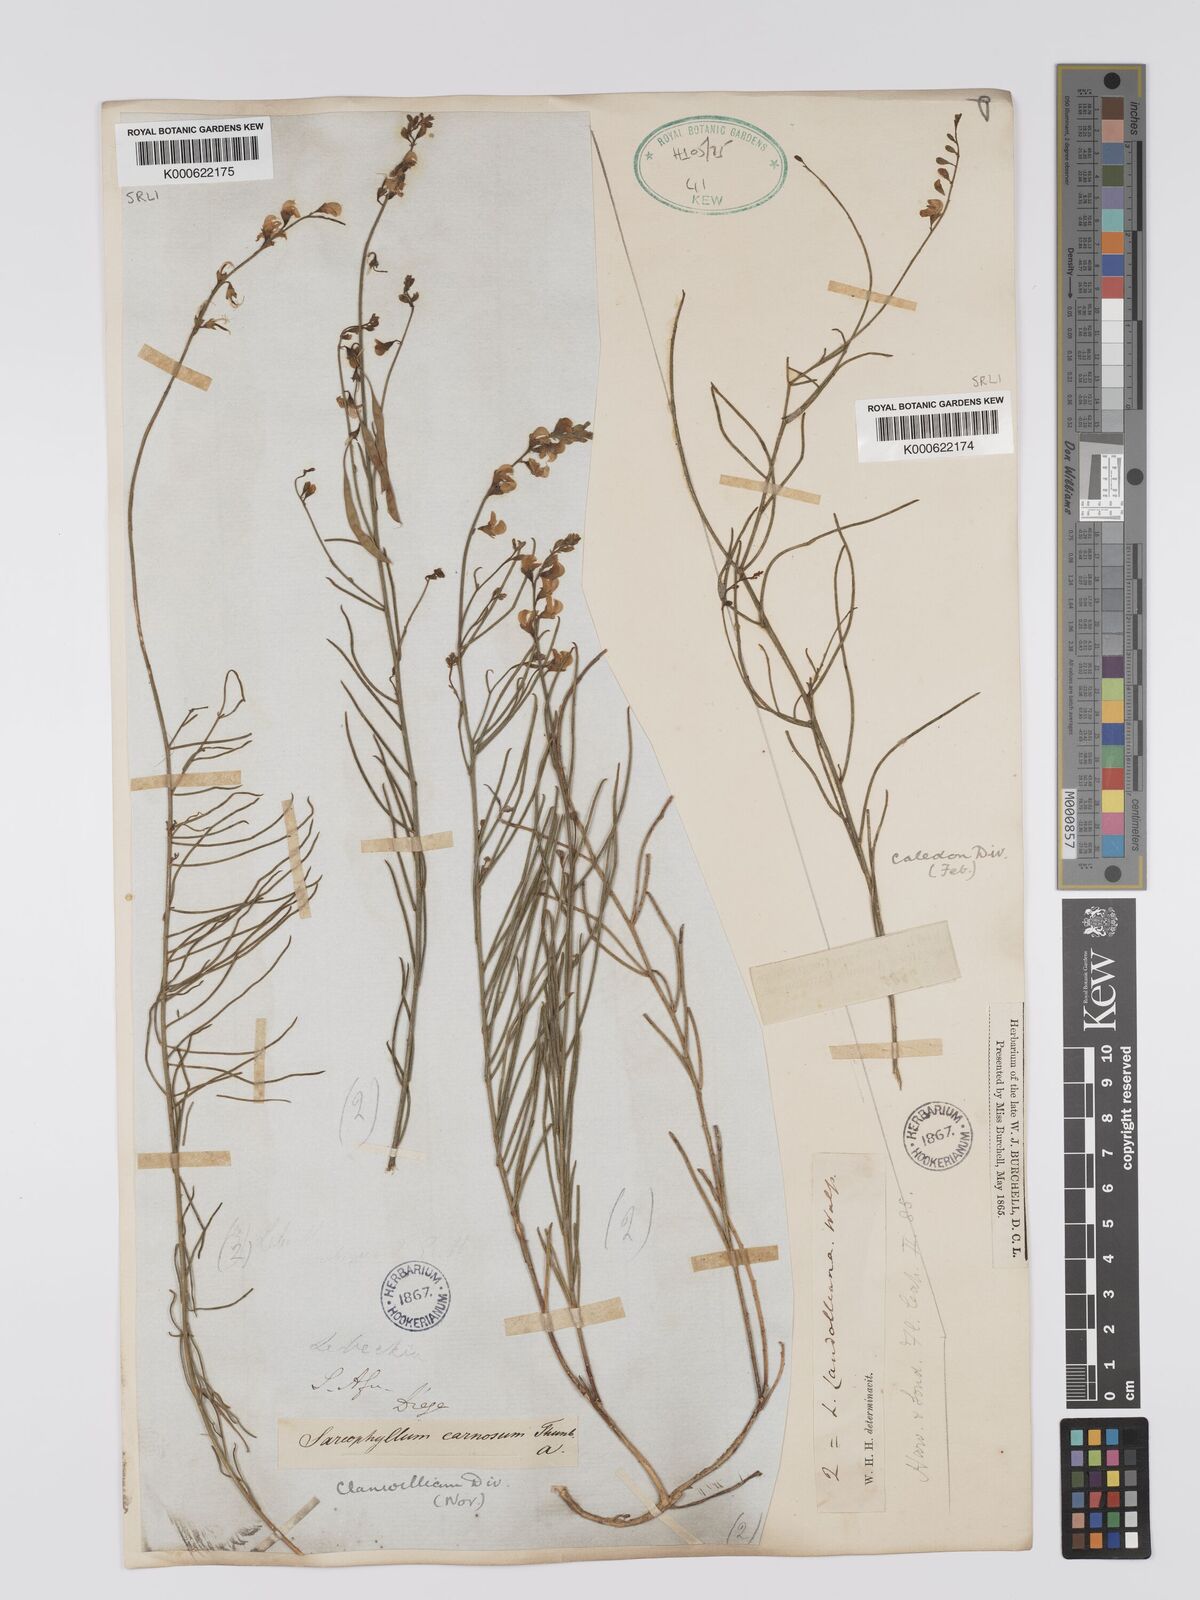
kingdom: Plantae
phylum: Tracheophyta
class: Magnoliopsida
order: Fabales
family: Fabaceae
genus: Lebeckia
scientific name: Lebeckia contaminata
